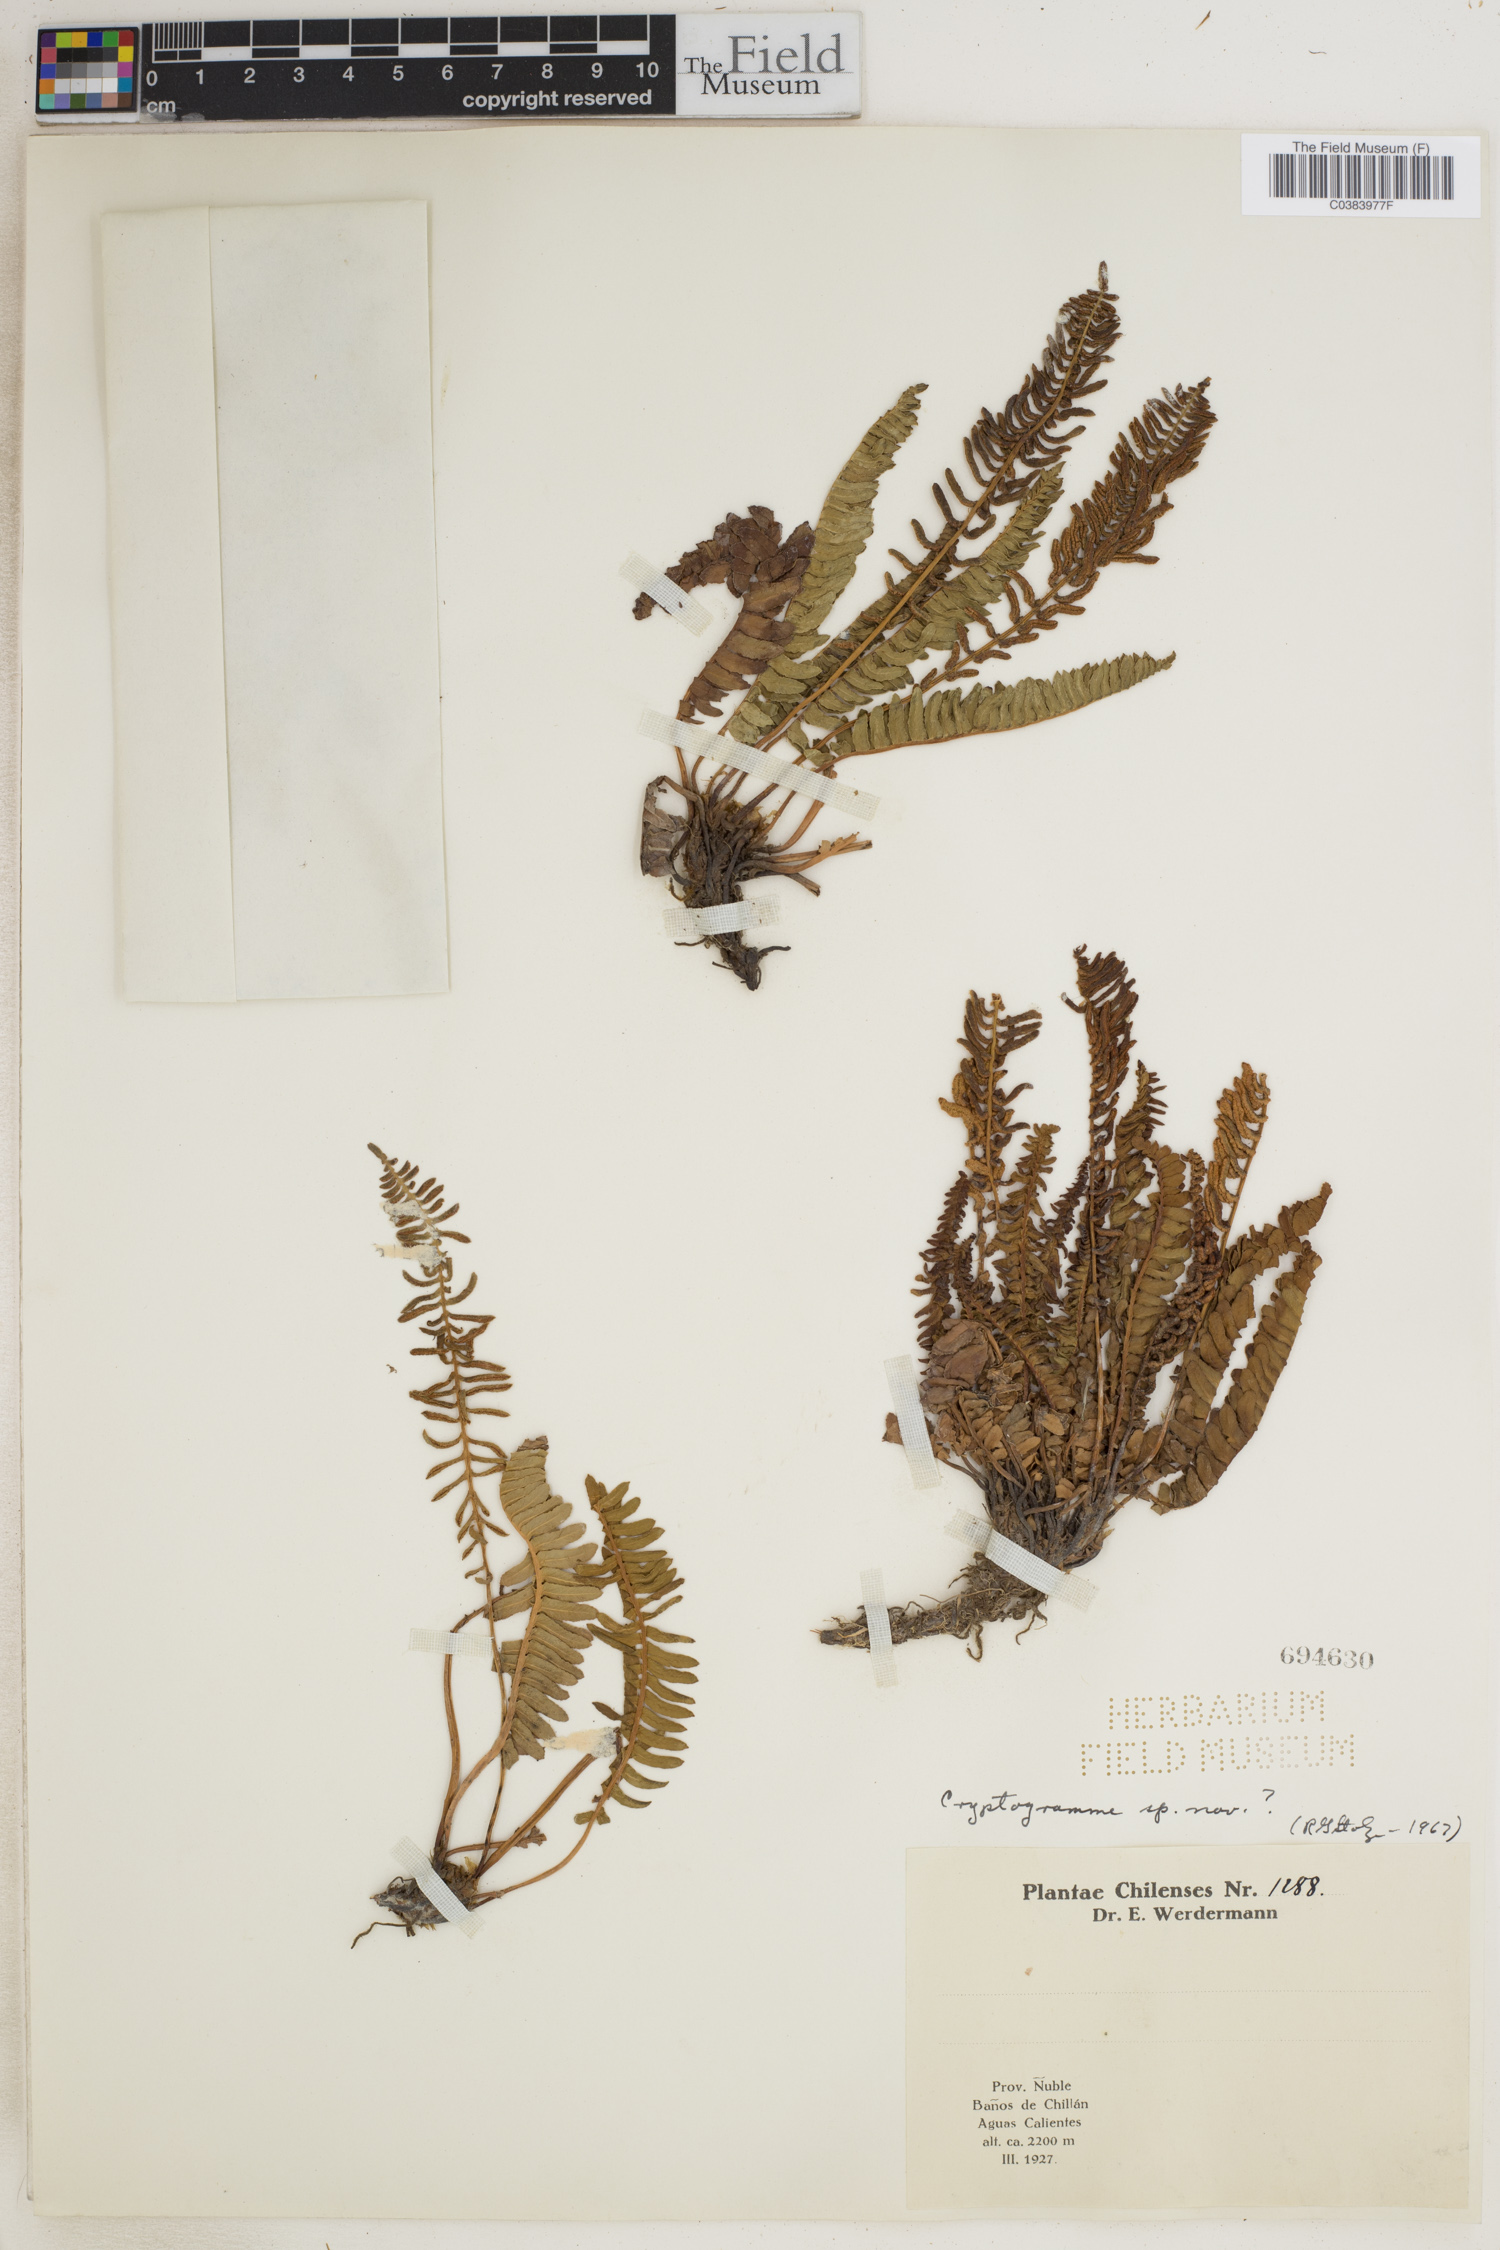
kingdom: Plantae
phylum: Tracheophyta
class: Polypodiopsida
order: Polypodiales
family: Pteridaceae
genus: Cryptogramma
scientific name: Cryptogramma
